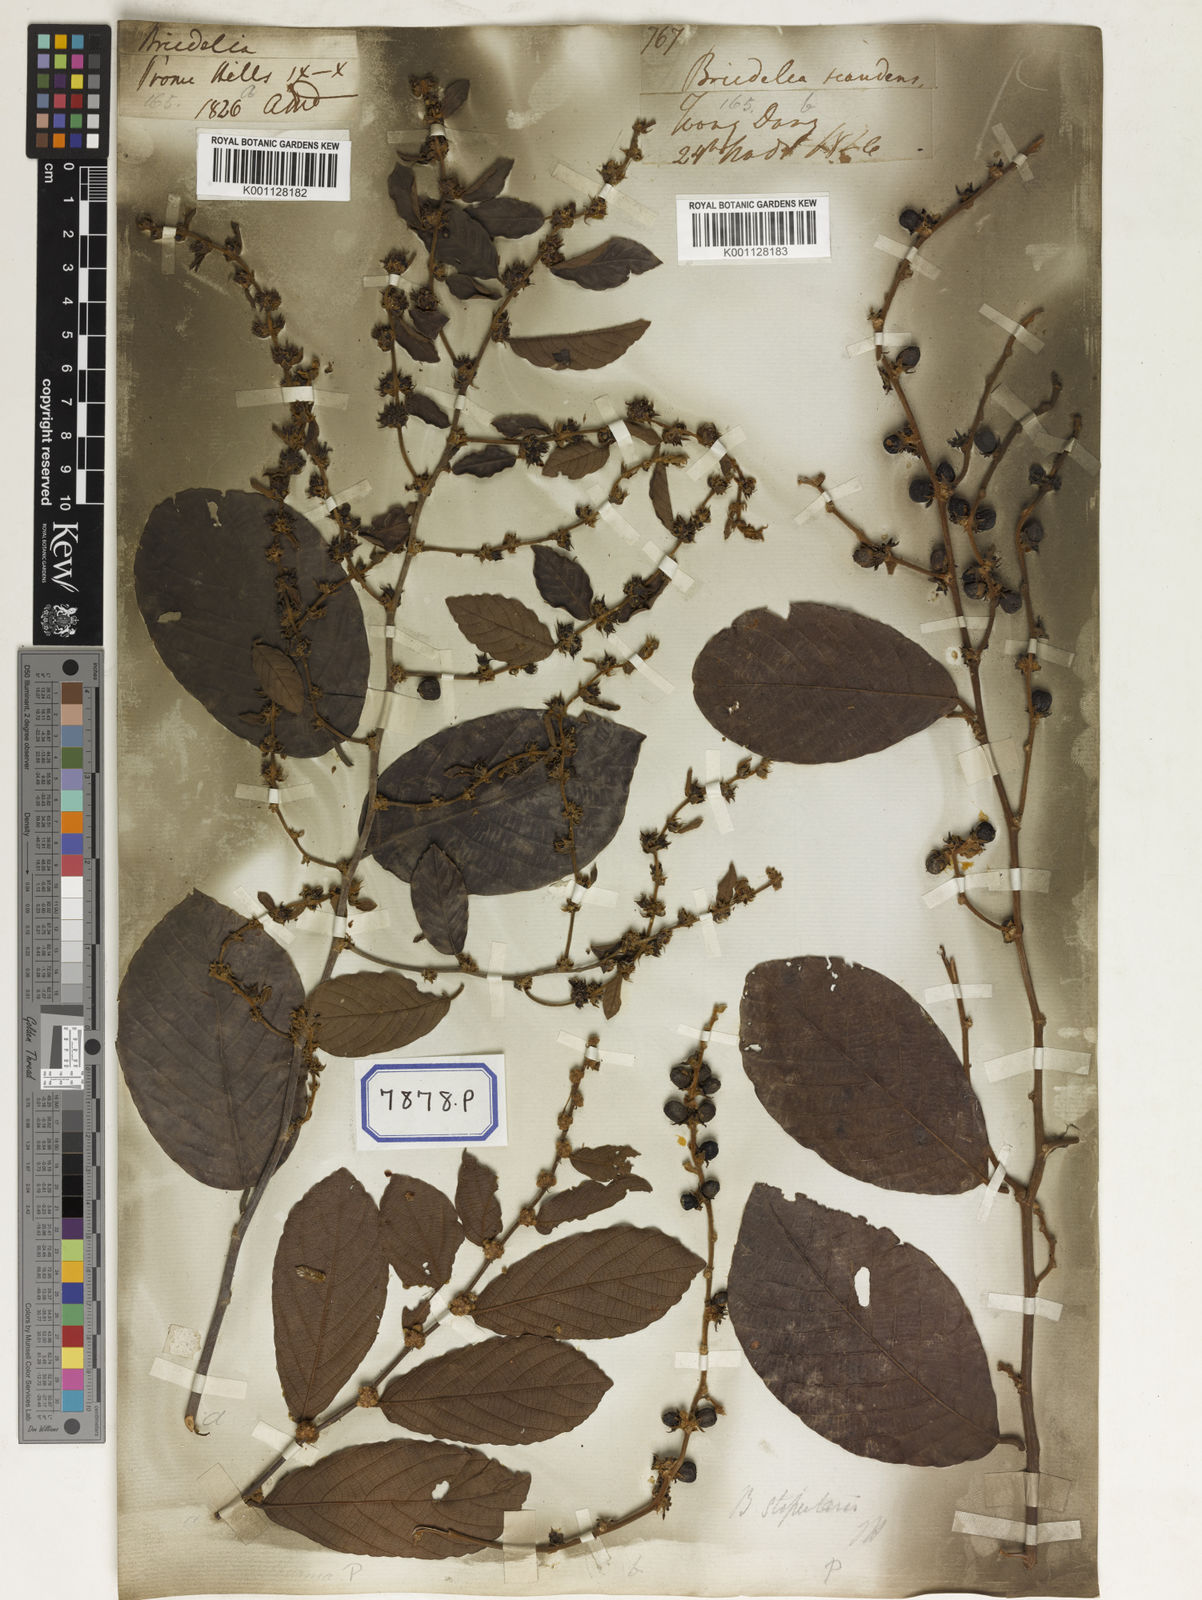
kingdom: Plantae
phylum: Tracheophyta
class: Magnoliopsida
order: Malpighiales
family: Phyllanthaceae
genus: Bridelia
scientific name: Bridelia
